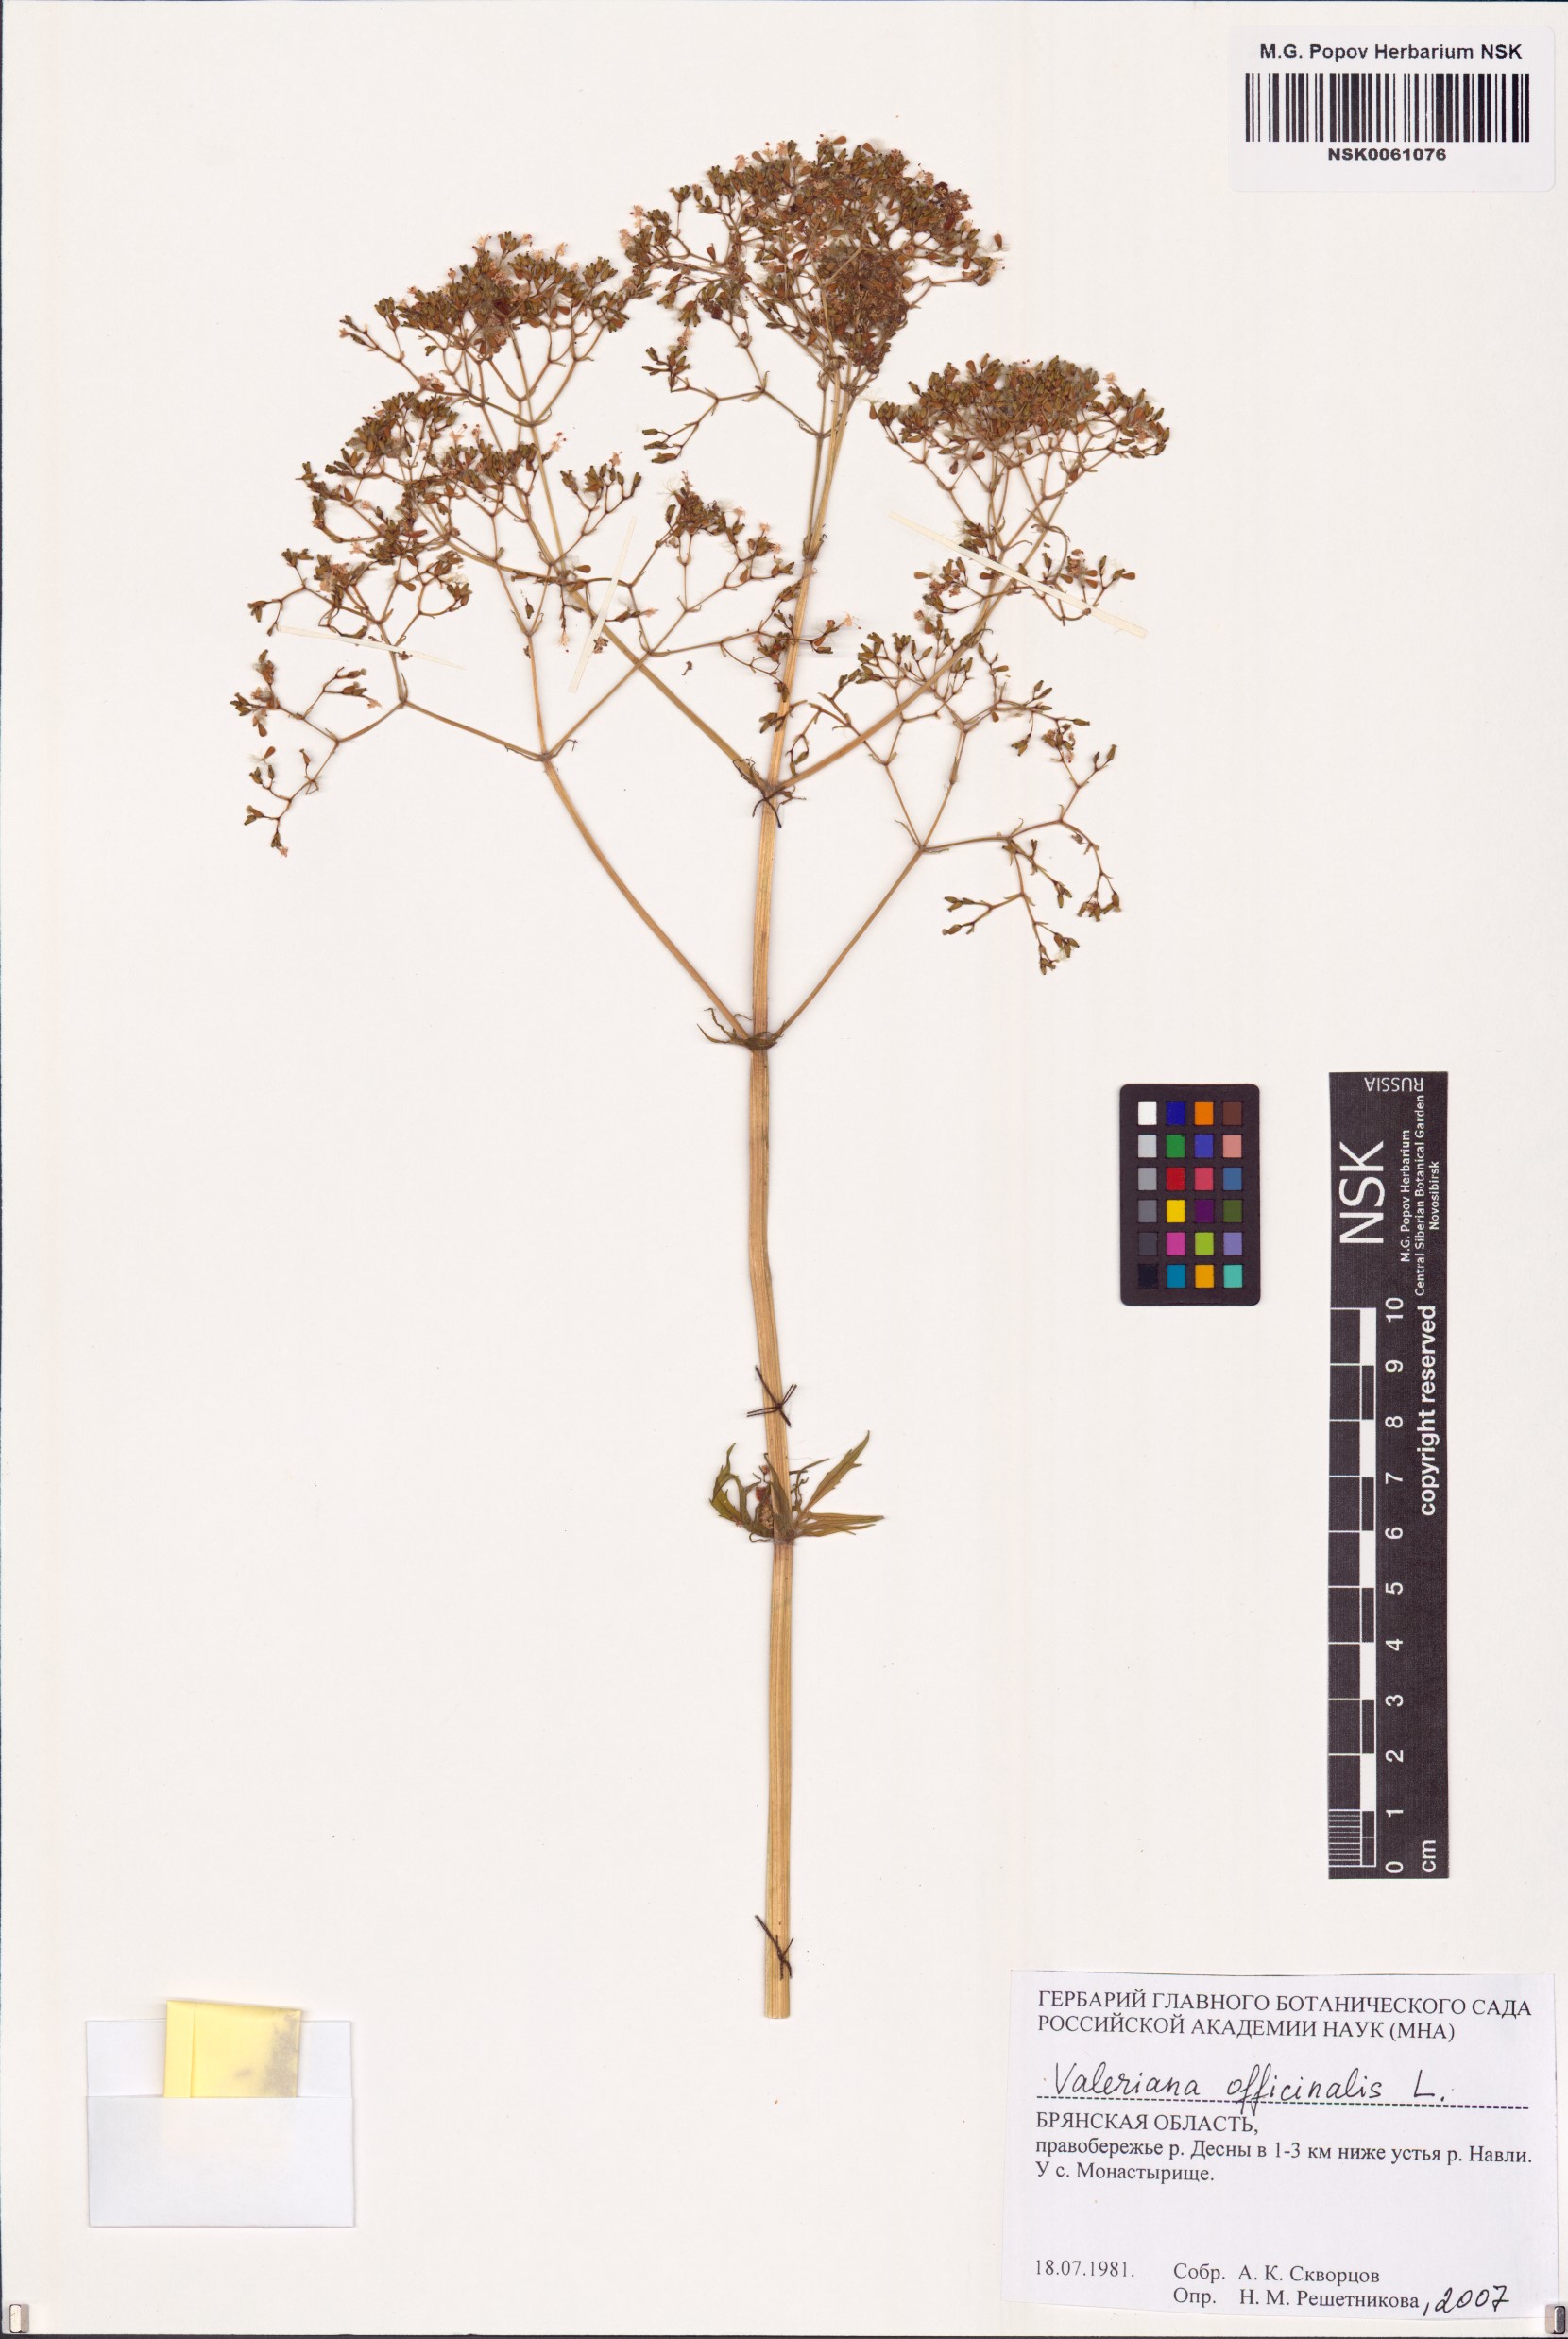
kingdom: Plantae
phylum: Tracheophyta
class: Magnoliopsida
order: Dipsacales
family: Caprifoliaceae
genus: Valeriana
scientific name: Valeriana officinalis
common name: Common valerian
